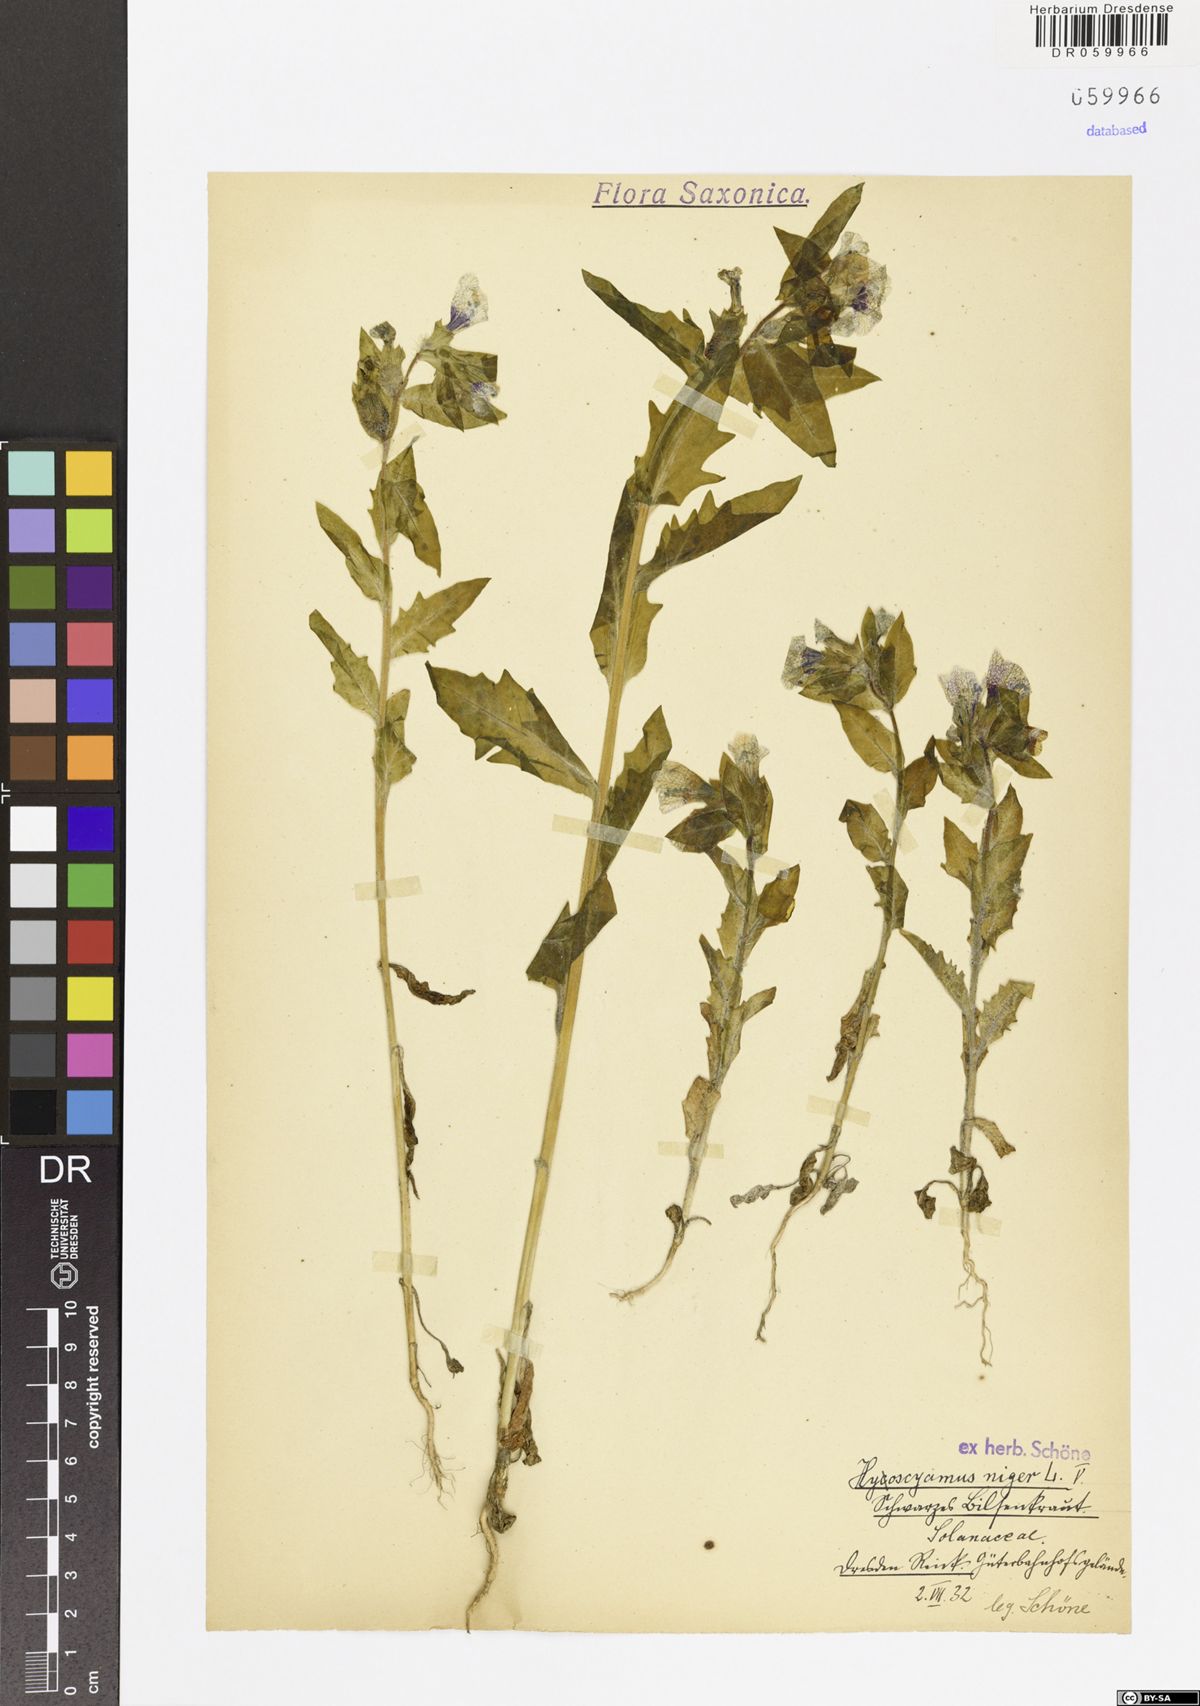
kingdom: Plantae
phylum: Tracheophyta
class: Magnoliopsida
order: Solanales
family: Solanaceae
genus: Hyoscyamus
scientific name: Hyoscyamus niger
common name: Henbane
